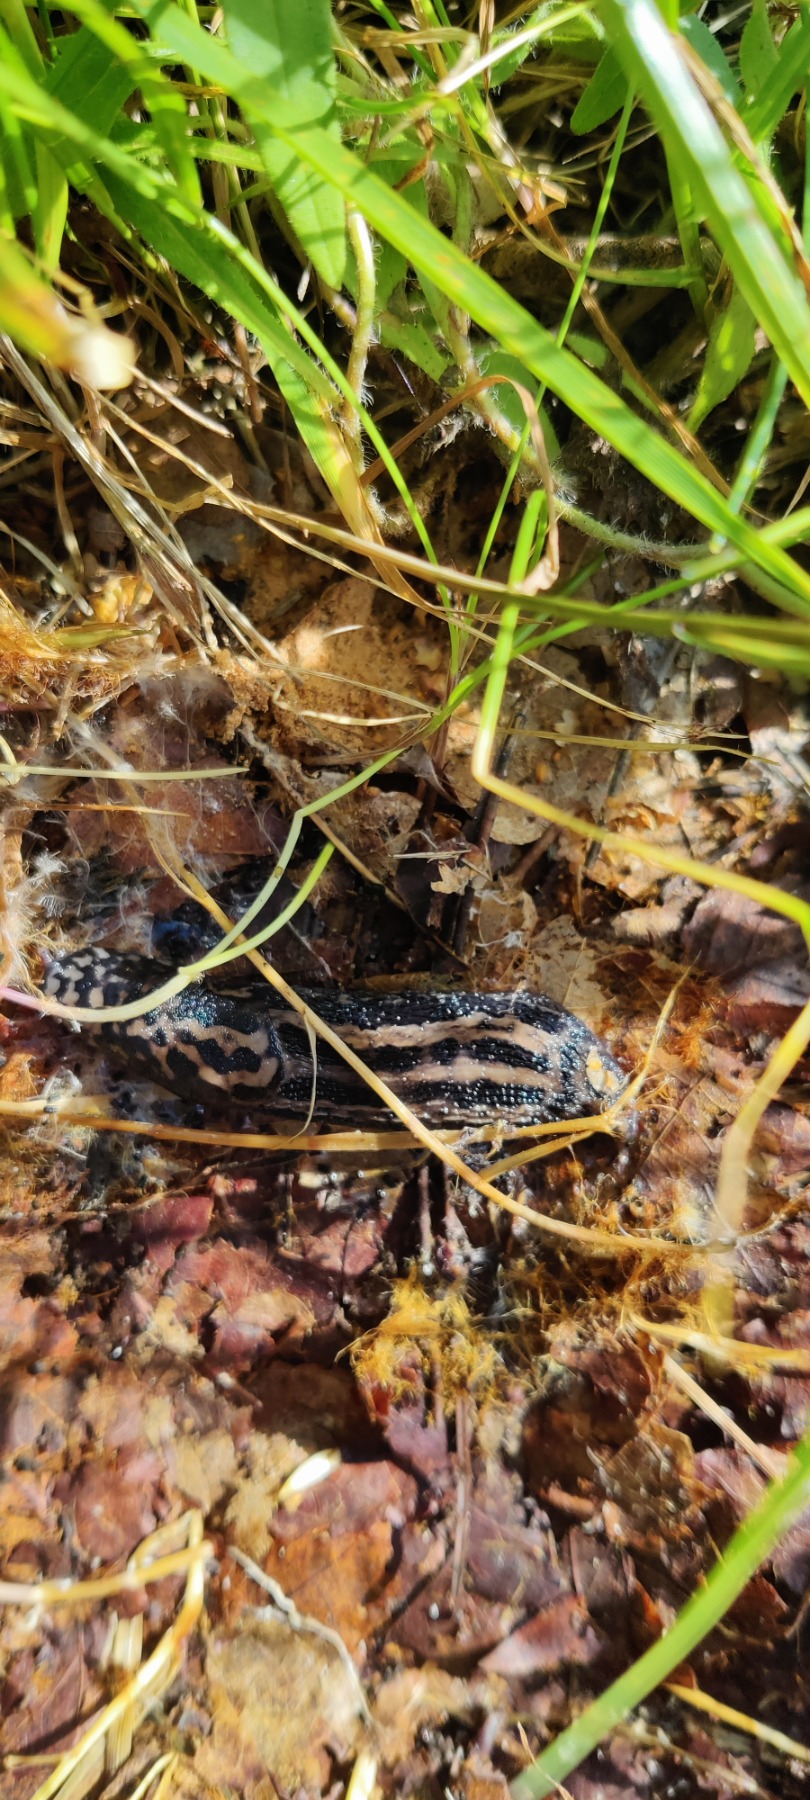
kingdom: Animalia
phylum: Mollusca
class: Gastropoda
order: Stylommatophora
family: Limacidae
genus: Limax
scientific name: Limax maximus
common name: Pantersnegl
